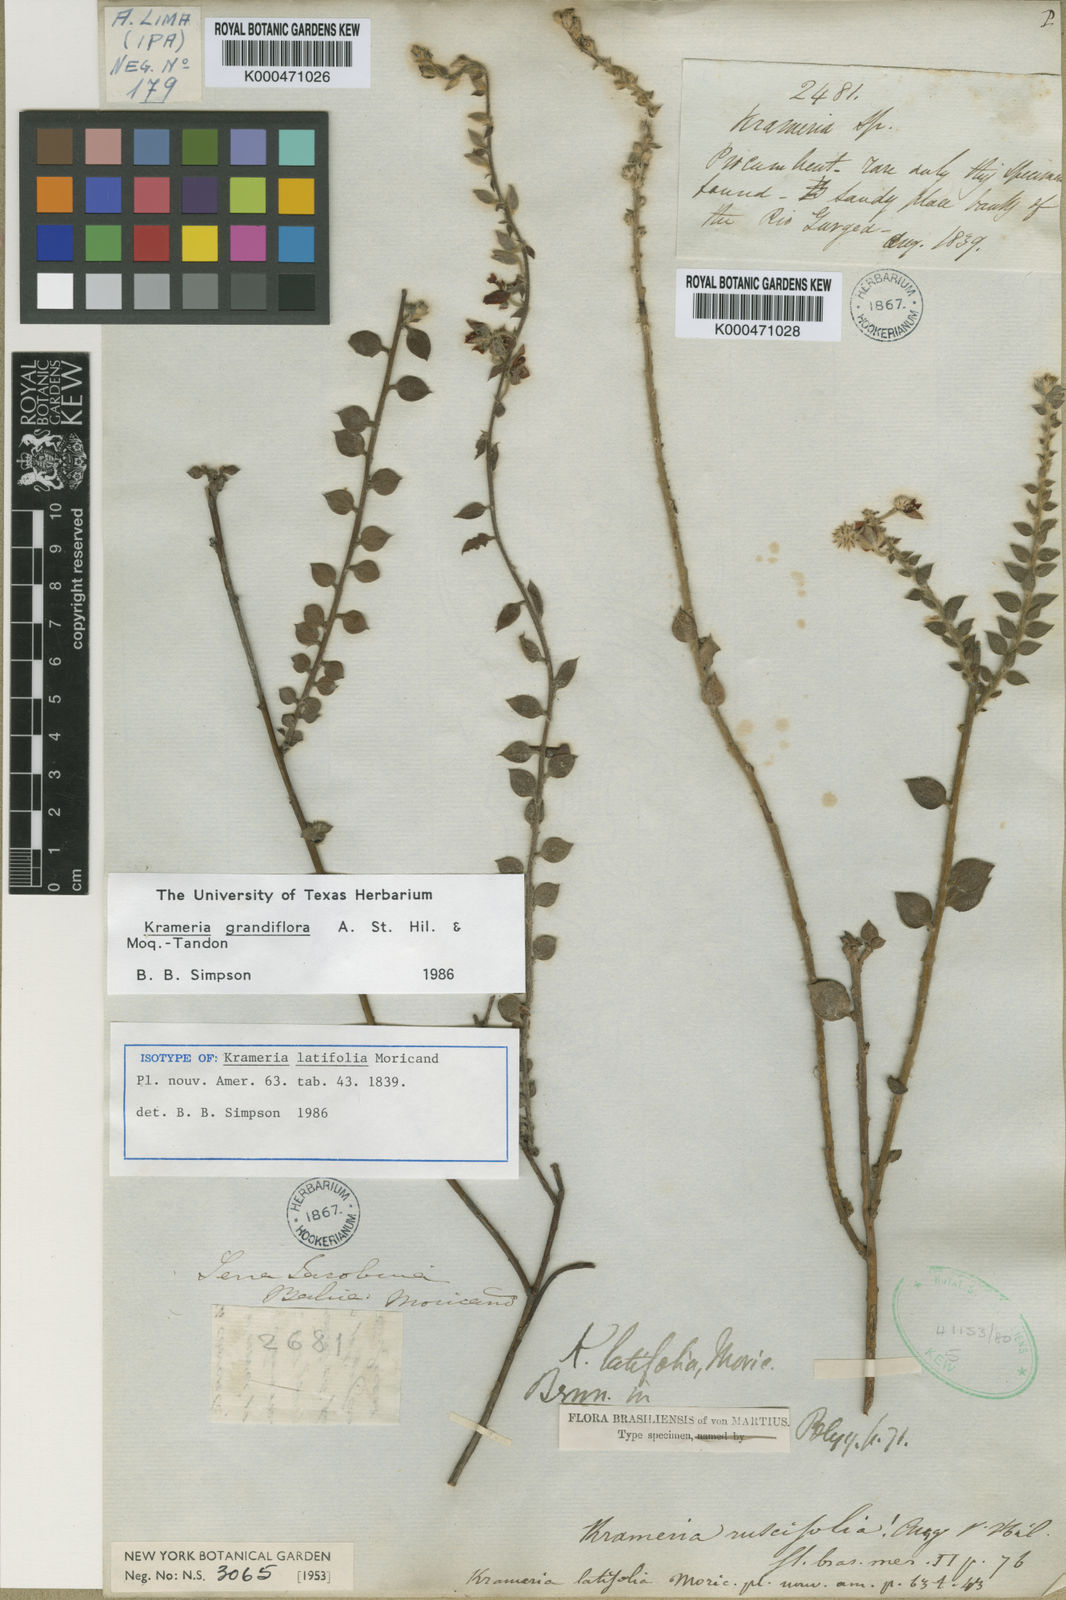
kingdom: Plantae
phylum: Tracheophyta
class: Magnoliopsida
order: Zygophyllales
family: Krameriaceae
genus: Krameria
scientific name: Krameria grandiflora
